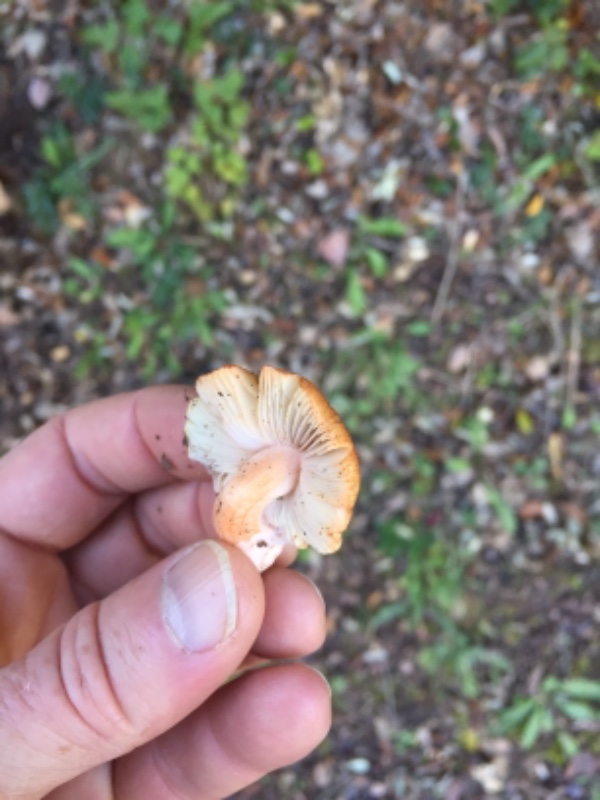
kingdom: Fungi
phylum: Basidiomycota
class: Agaricomycetes
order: Agaricales
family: Inocybaceae
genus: Inocybe
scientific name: Inocybe godeyi
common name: orangerødmende trævlhat
